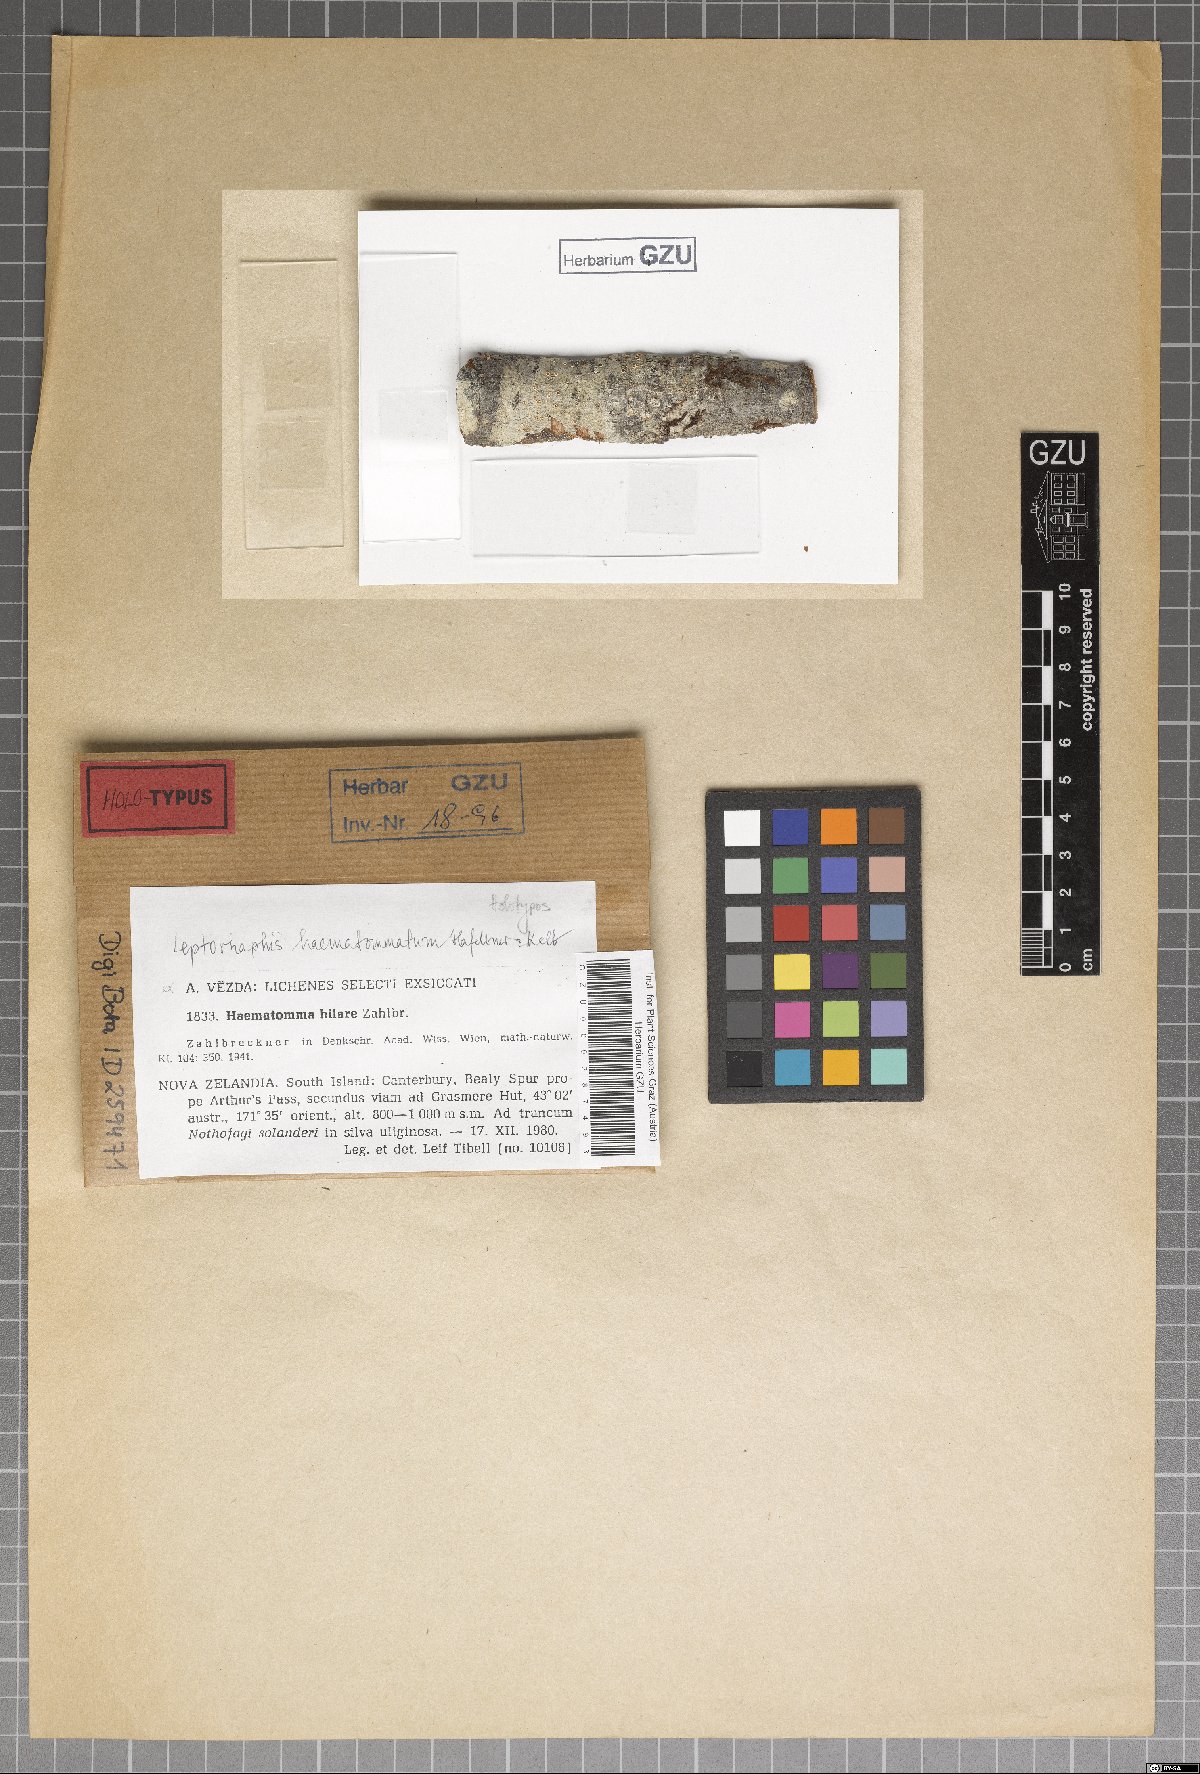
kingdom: Fungi
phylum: Ascomycota
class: Dothideomycetes
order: Pleosporales
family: Naetrocymbaceae
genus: Leptorhaphis
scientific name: Leptorhaphis haematommatum
